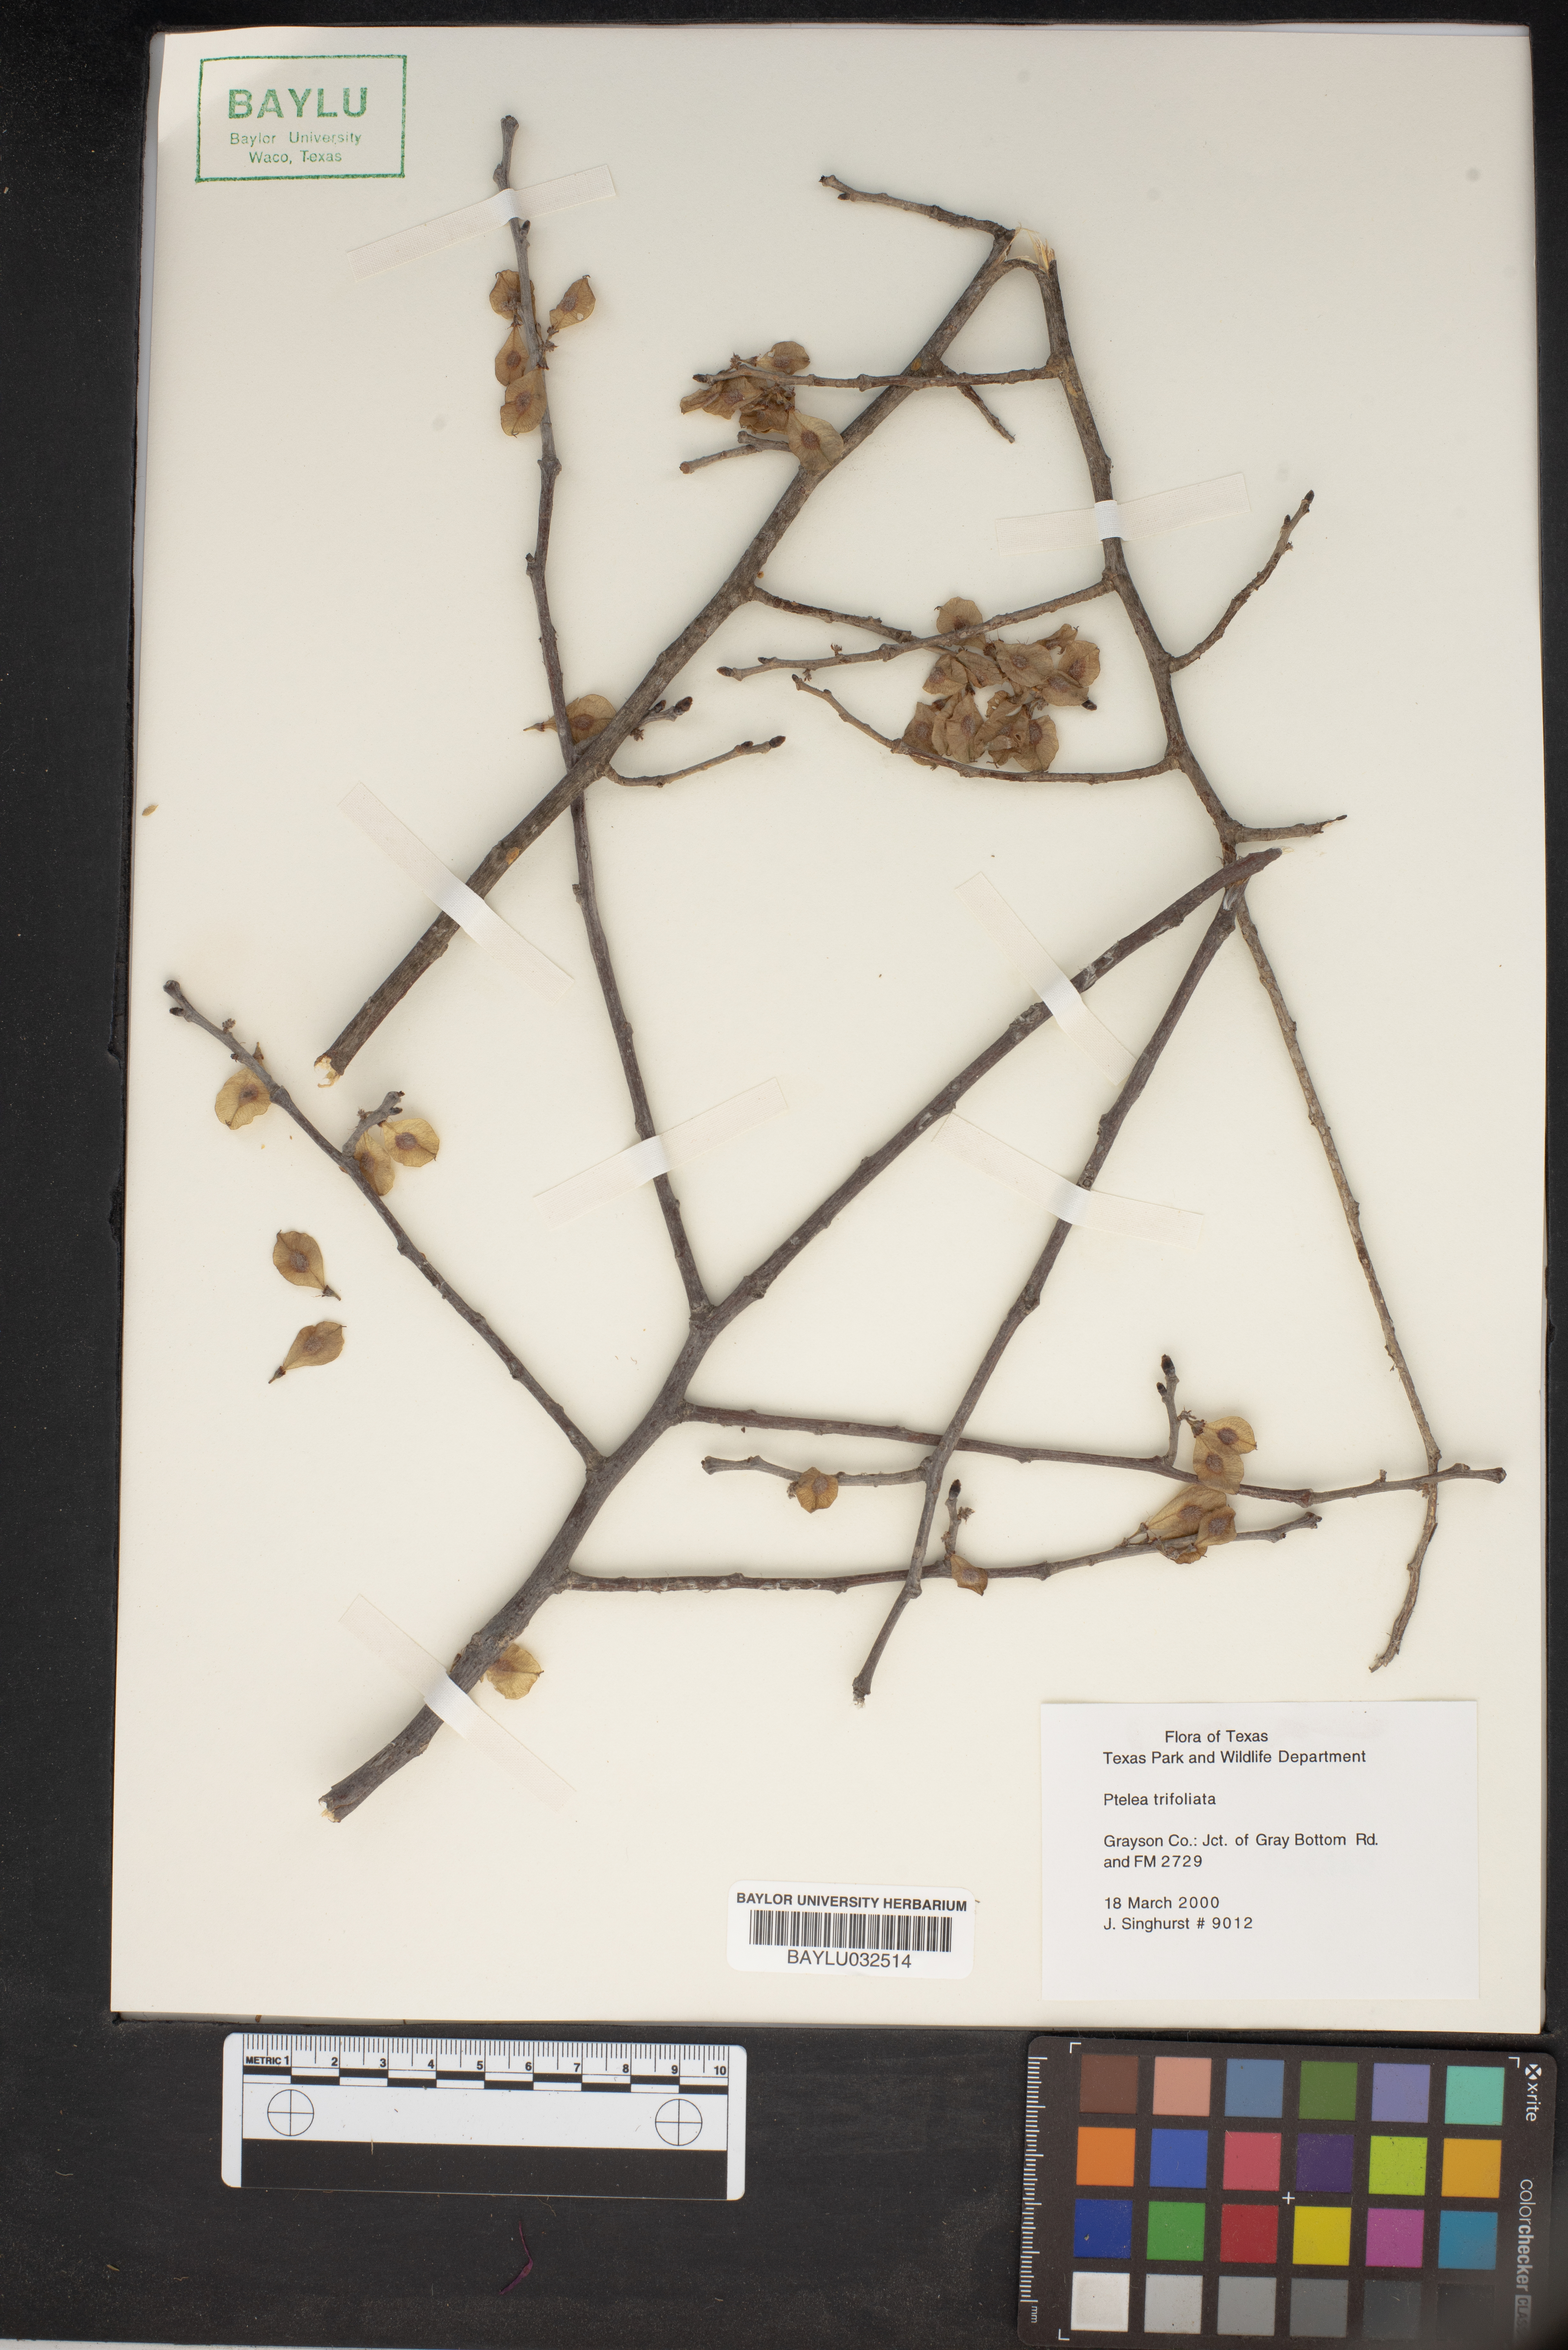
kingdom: Plantae
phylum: Tracheophyta
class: Magnoliopsida
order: Sapindales
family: Rutaceae
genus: Ptelea
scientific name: Ptelea trifoliata
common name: Common hop-tree
